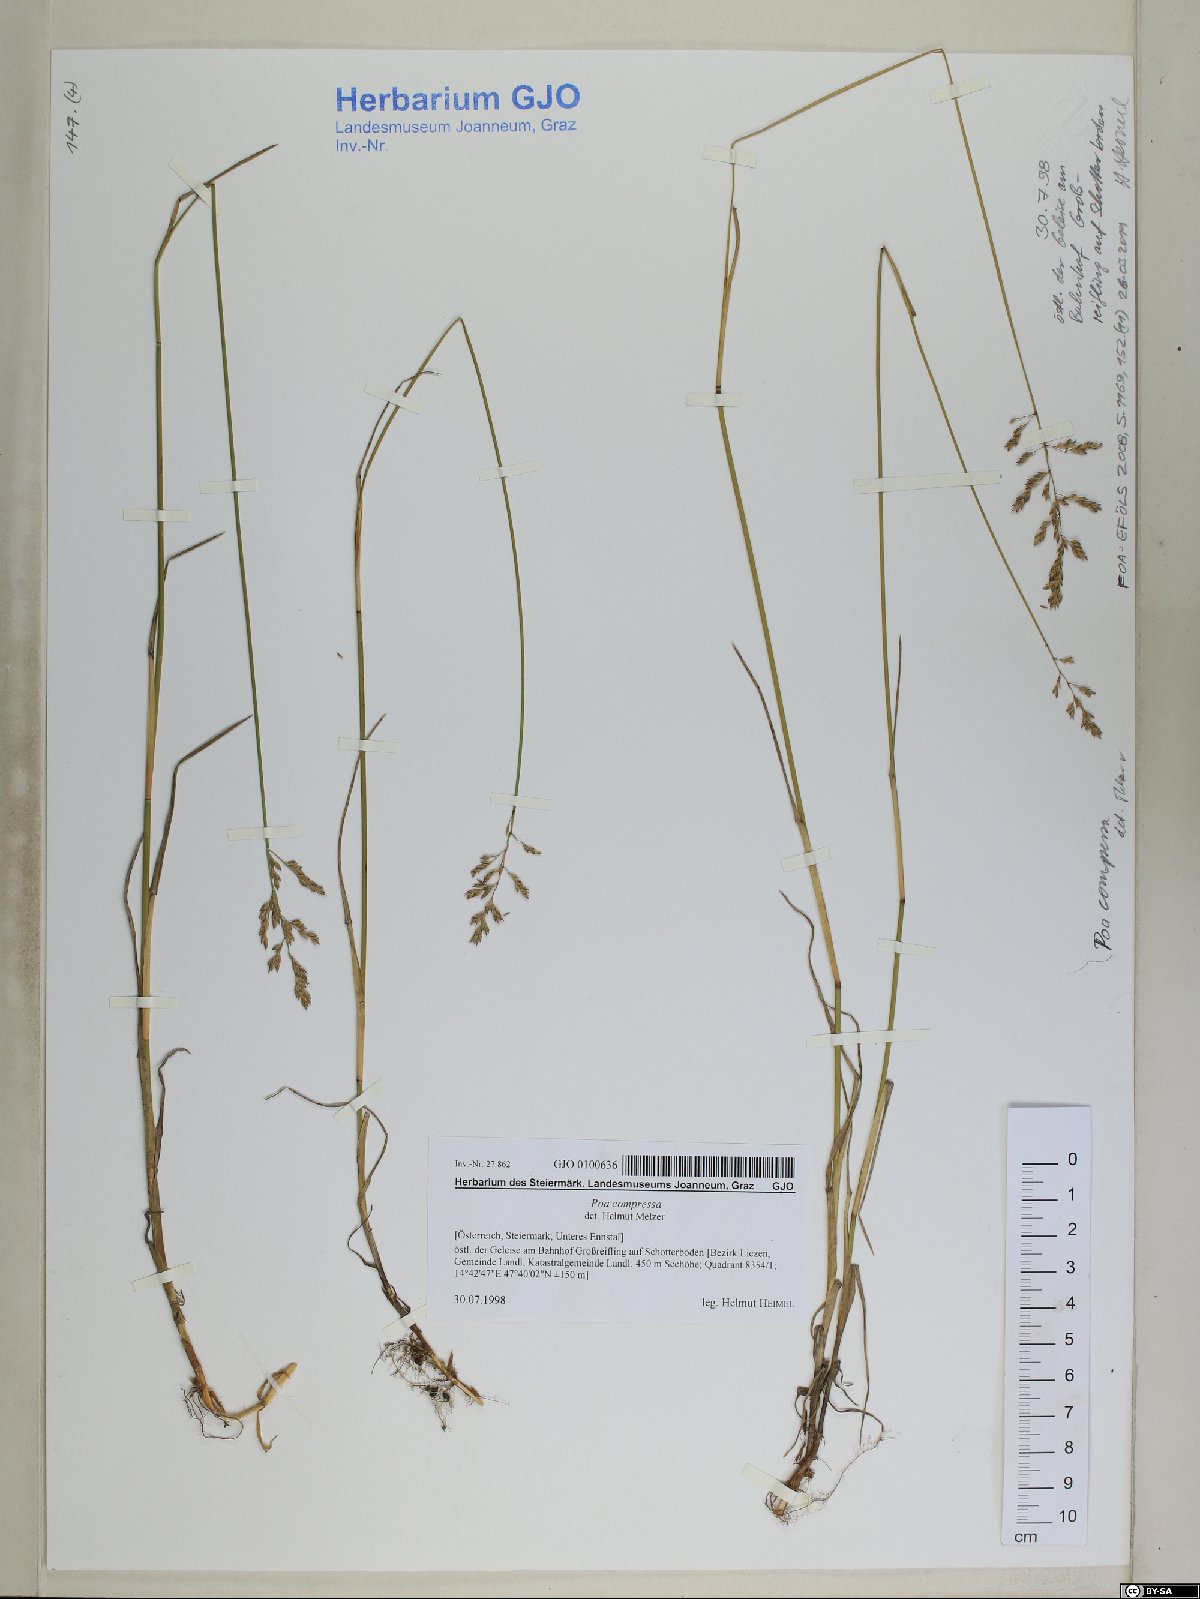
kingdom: Plantae
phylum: Tracheophyta
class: Liliopsida
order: Poales
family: Poaceae
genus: Poa
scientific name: Poa compressa
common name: Canada bluegrass
